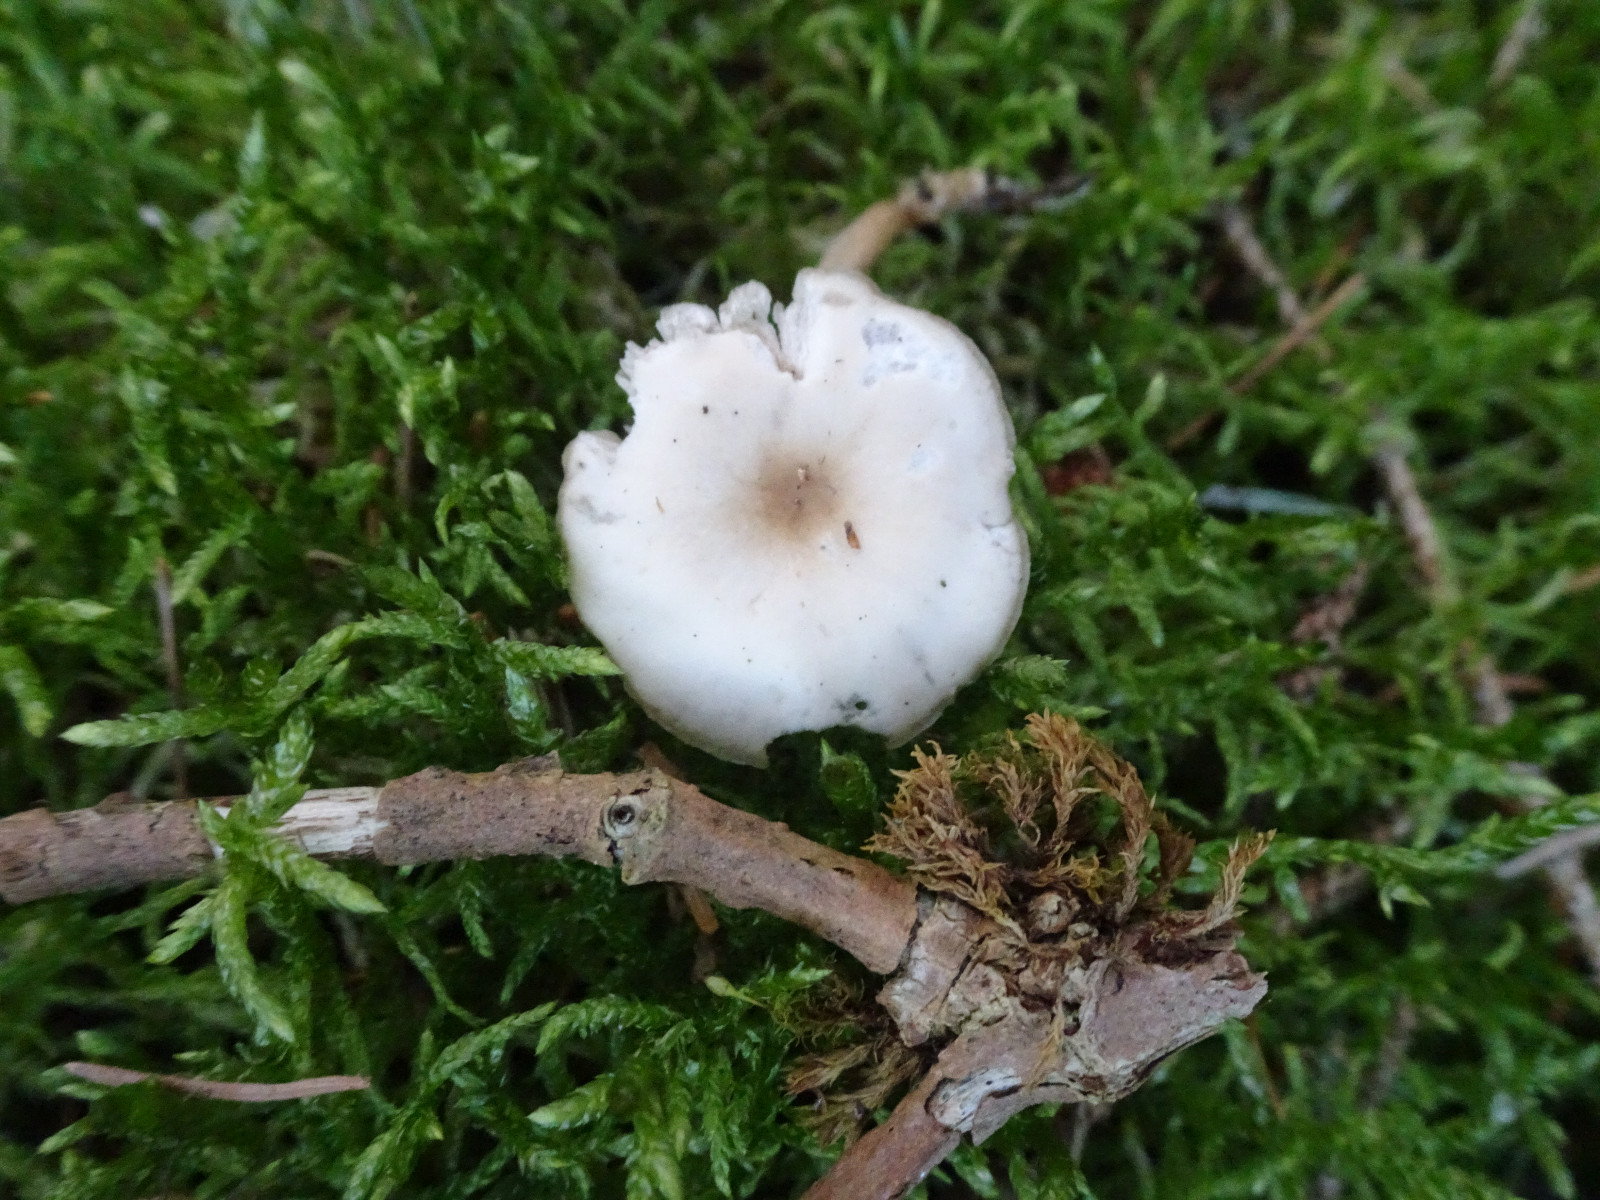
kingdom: Fungi
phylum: Basidiomycota
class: Agaricomycetes
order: Agaricales
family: Tricholomataceae
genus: Clitocybe
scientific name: Clitocybe fragrans
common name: vellugtende tragthat
